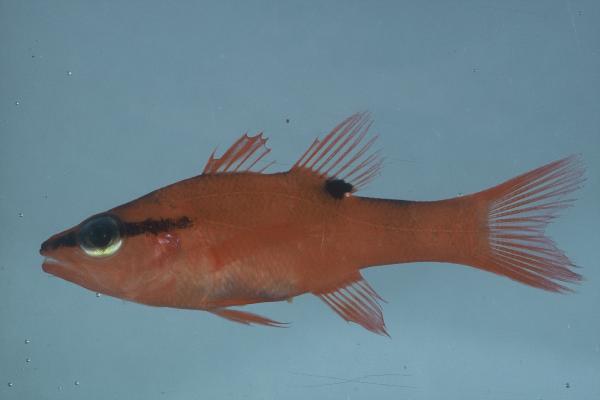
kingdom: Animalia
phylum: Chordata
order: Perciformes
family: Apogonidae
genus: Zapogon
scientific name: Zapogon evermanni
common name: Cave cardinalfish
